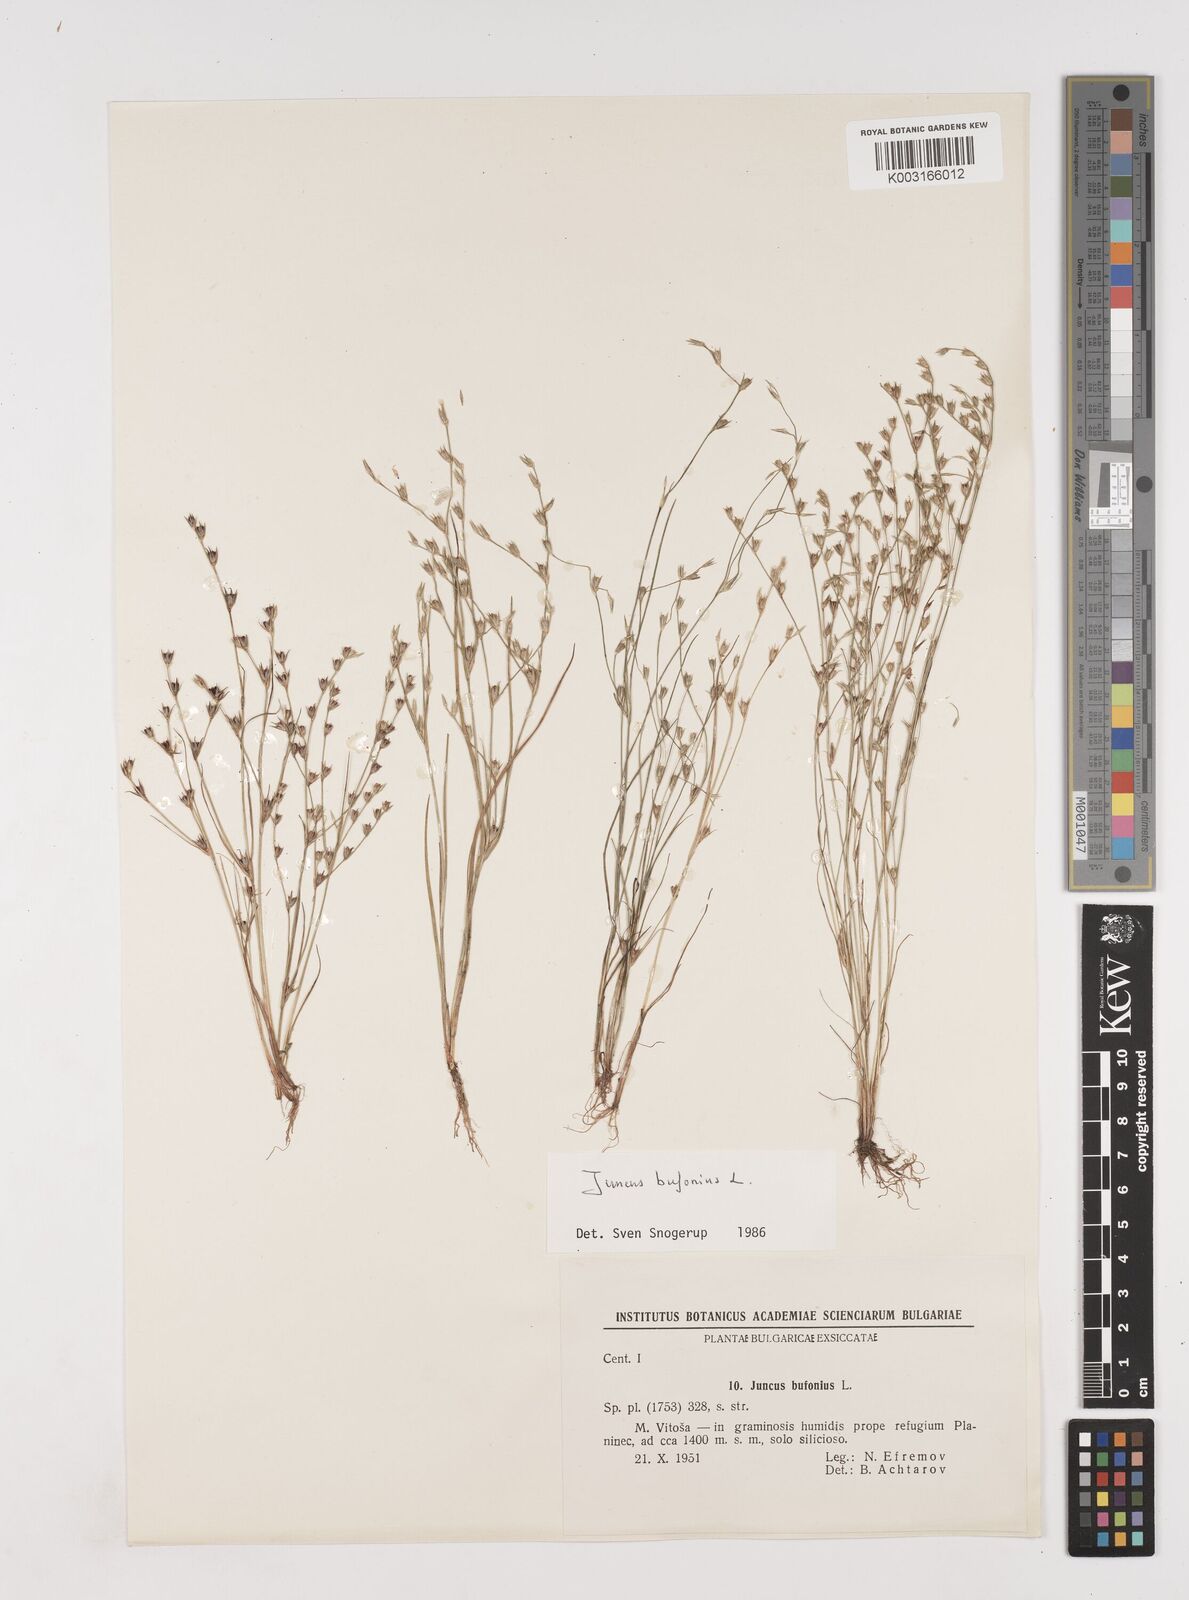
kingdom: Plantae
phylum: Tracheophyta
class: Liliopsida
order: Poales
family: Juncaceae
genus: Juncus
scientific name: Juncus bufonius
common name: Toad rush
